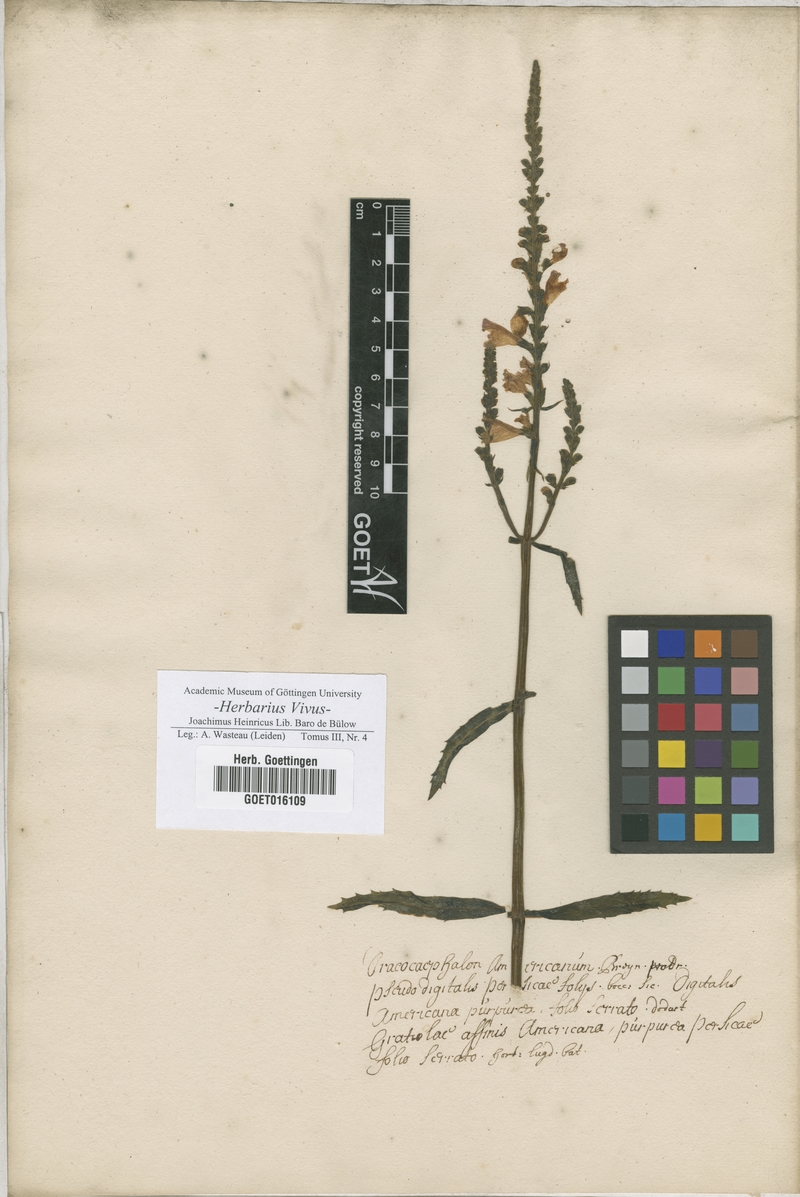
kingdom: Plantae
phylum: Tracheophyta
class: Magnoliopsida
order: Lamiales
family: Plantaginaceae
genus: Gratiola
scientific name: Gratiola
